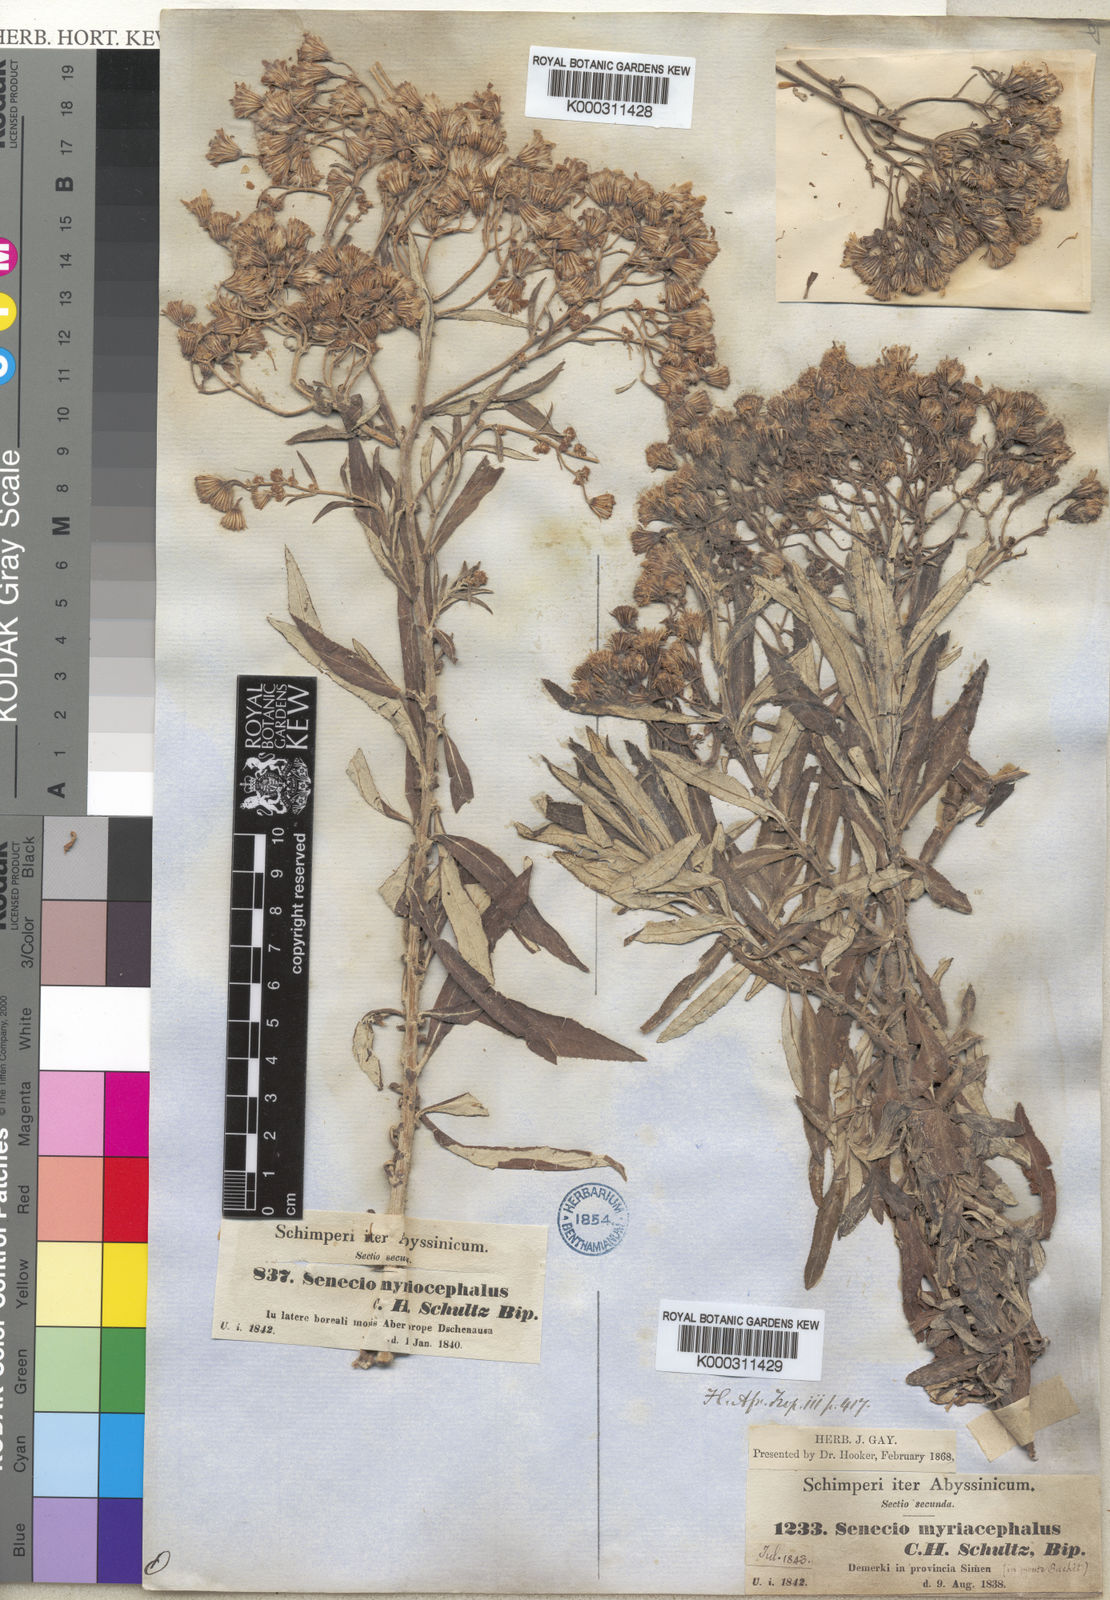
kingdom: Plantae
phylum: Tracheophyta
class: Magnoliopsida
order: Asterales
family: Asteraceae
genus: Senecio
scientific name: Senecio myriocephalus
